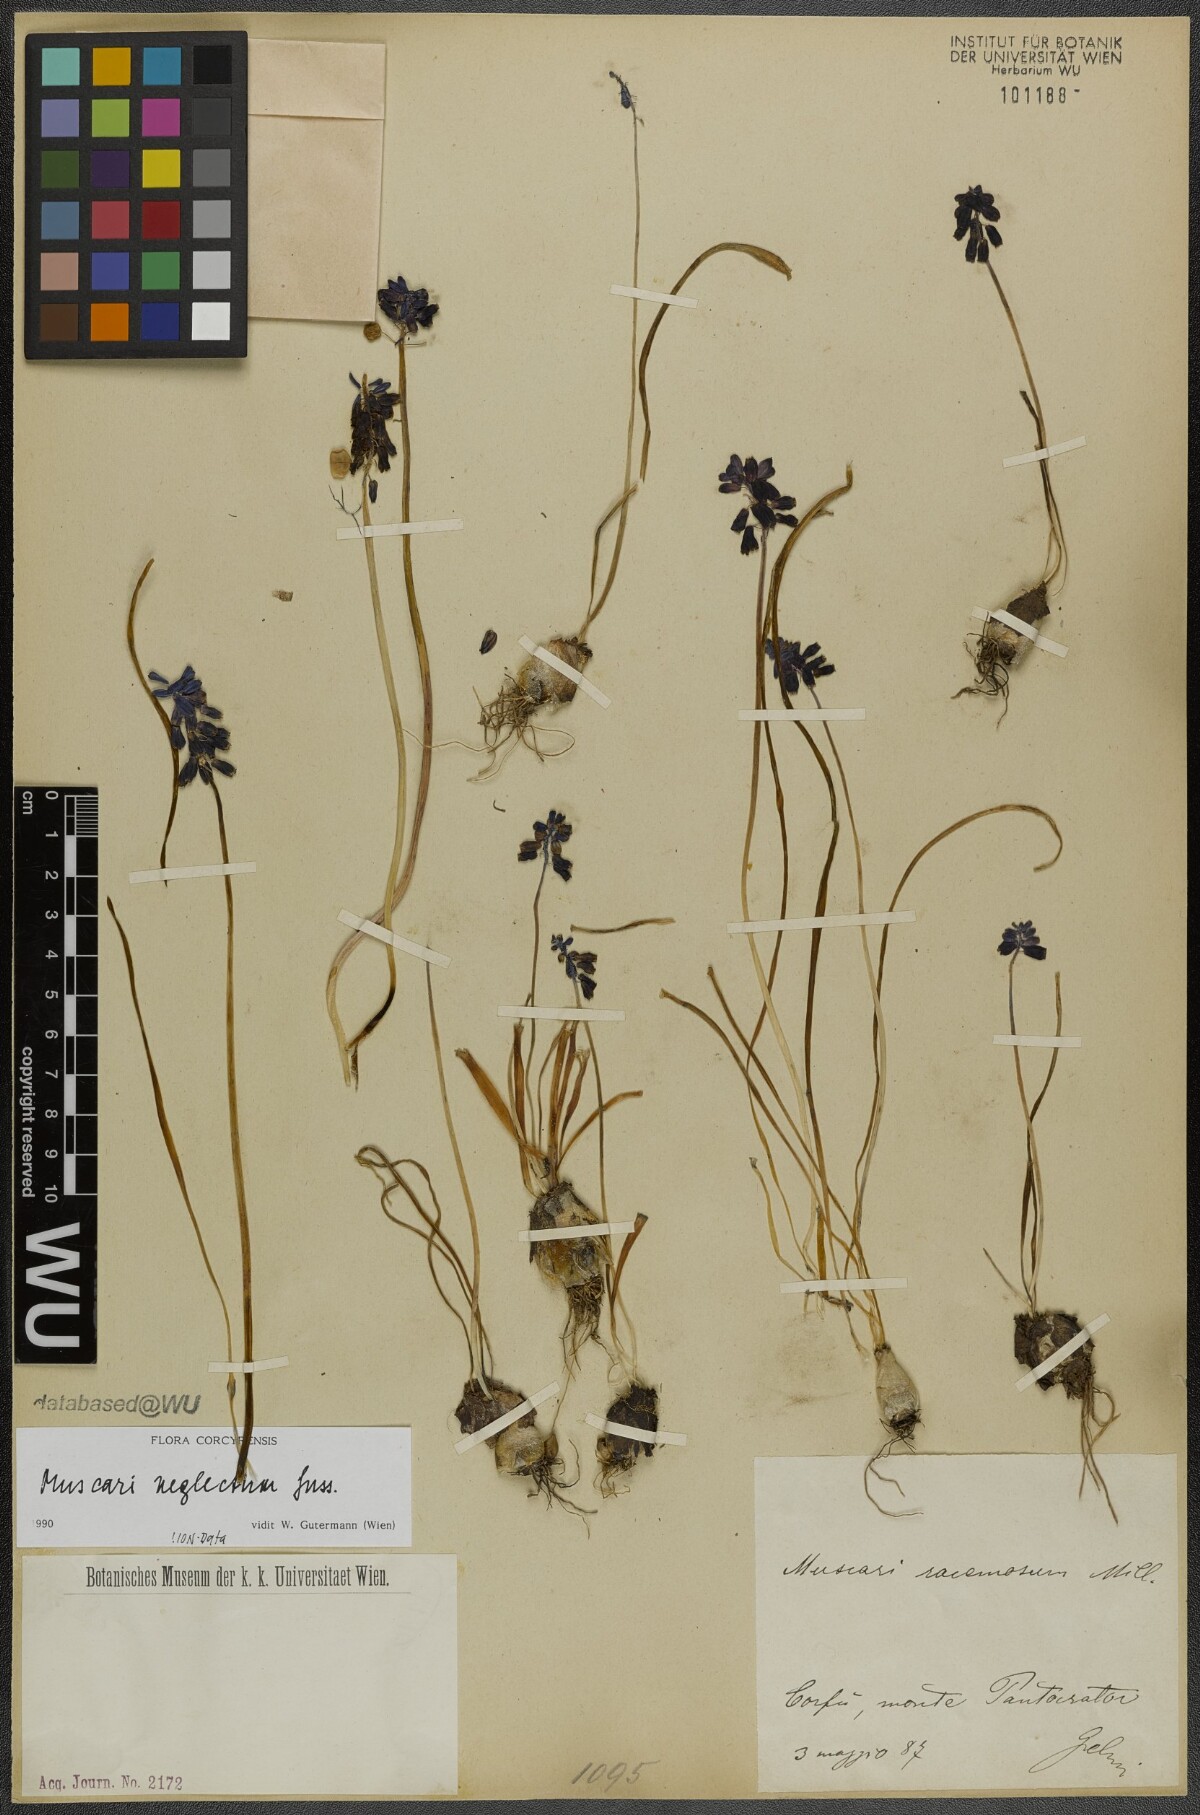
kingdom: Plantae
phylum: Tracheophyta
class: Liliopsida
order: Asparagales
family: Asparagaceae
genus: Muscari
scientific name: Muscari neglectum
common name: Grape-hyacinth
